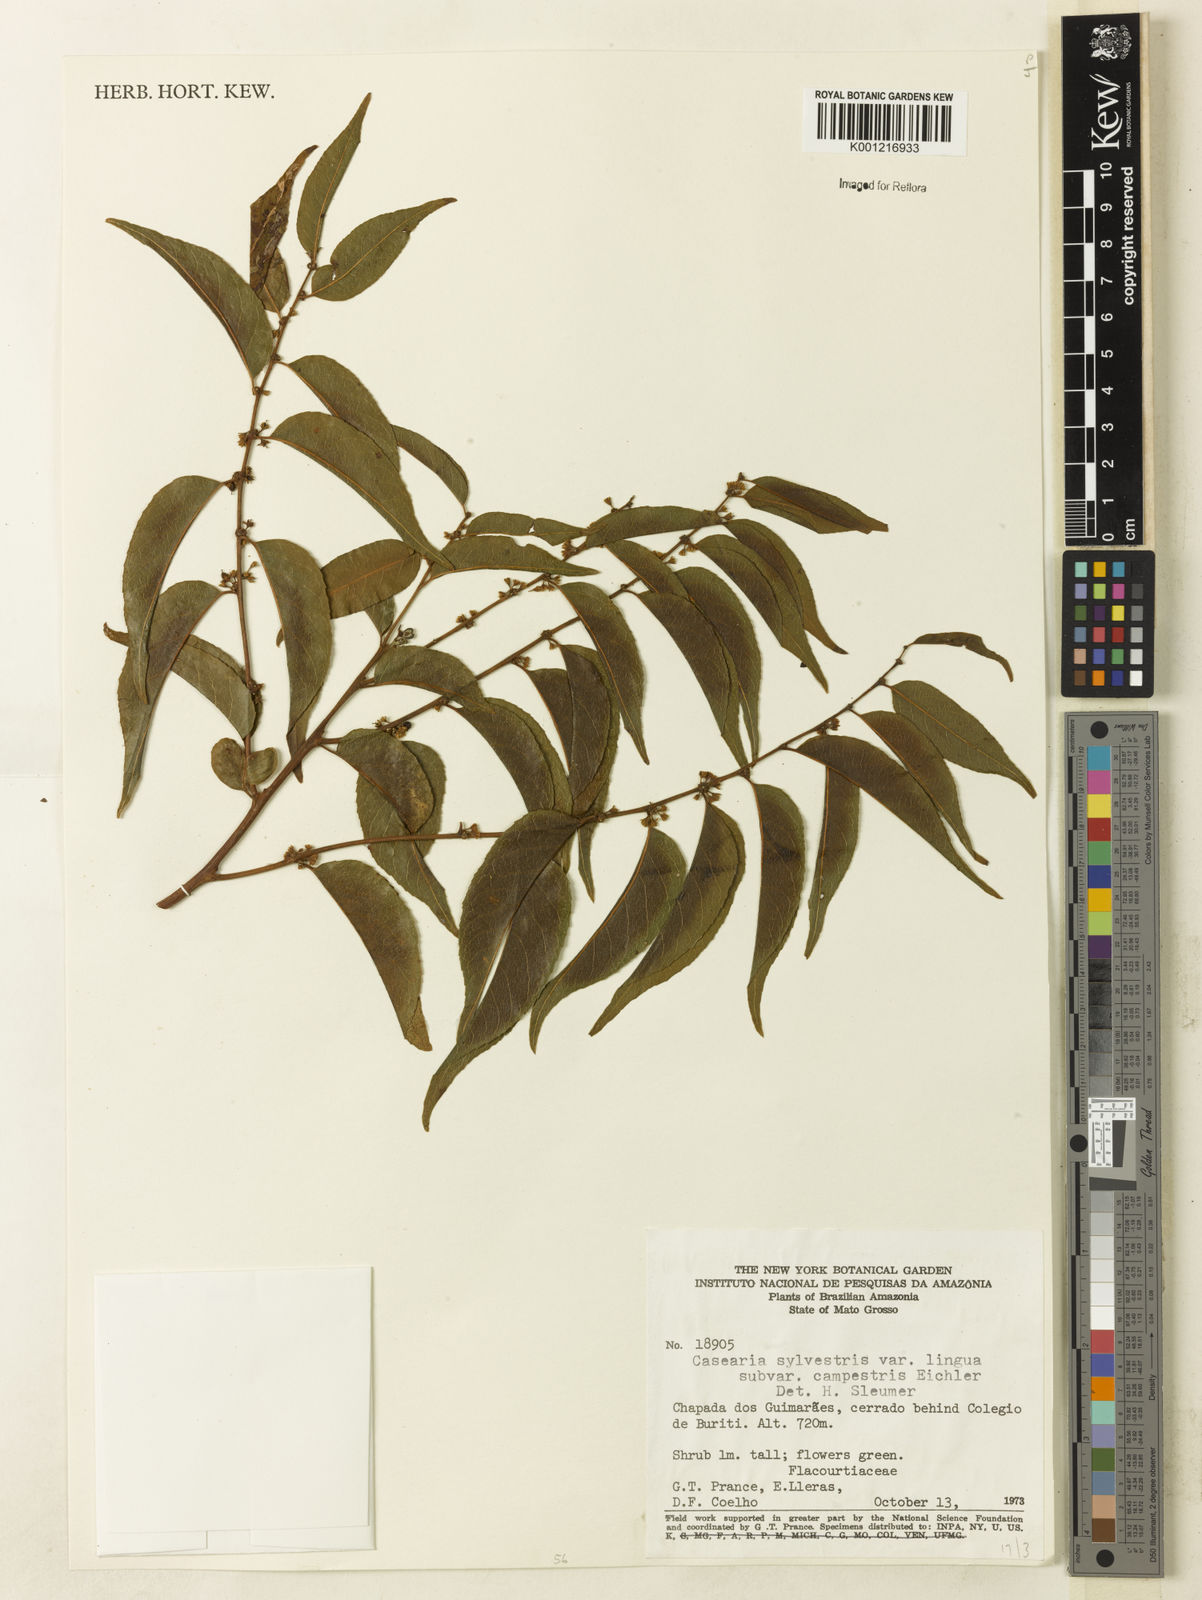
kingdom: Plantae
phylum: Tracheophyta
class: Magnoliopsida
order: Malpighiales
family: Salicaceae
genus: Casearia
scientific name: Casearia sylvestris
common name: Wild sage
